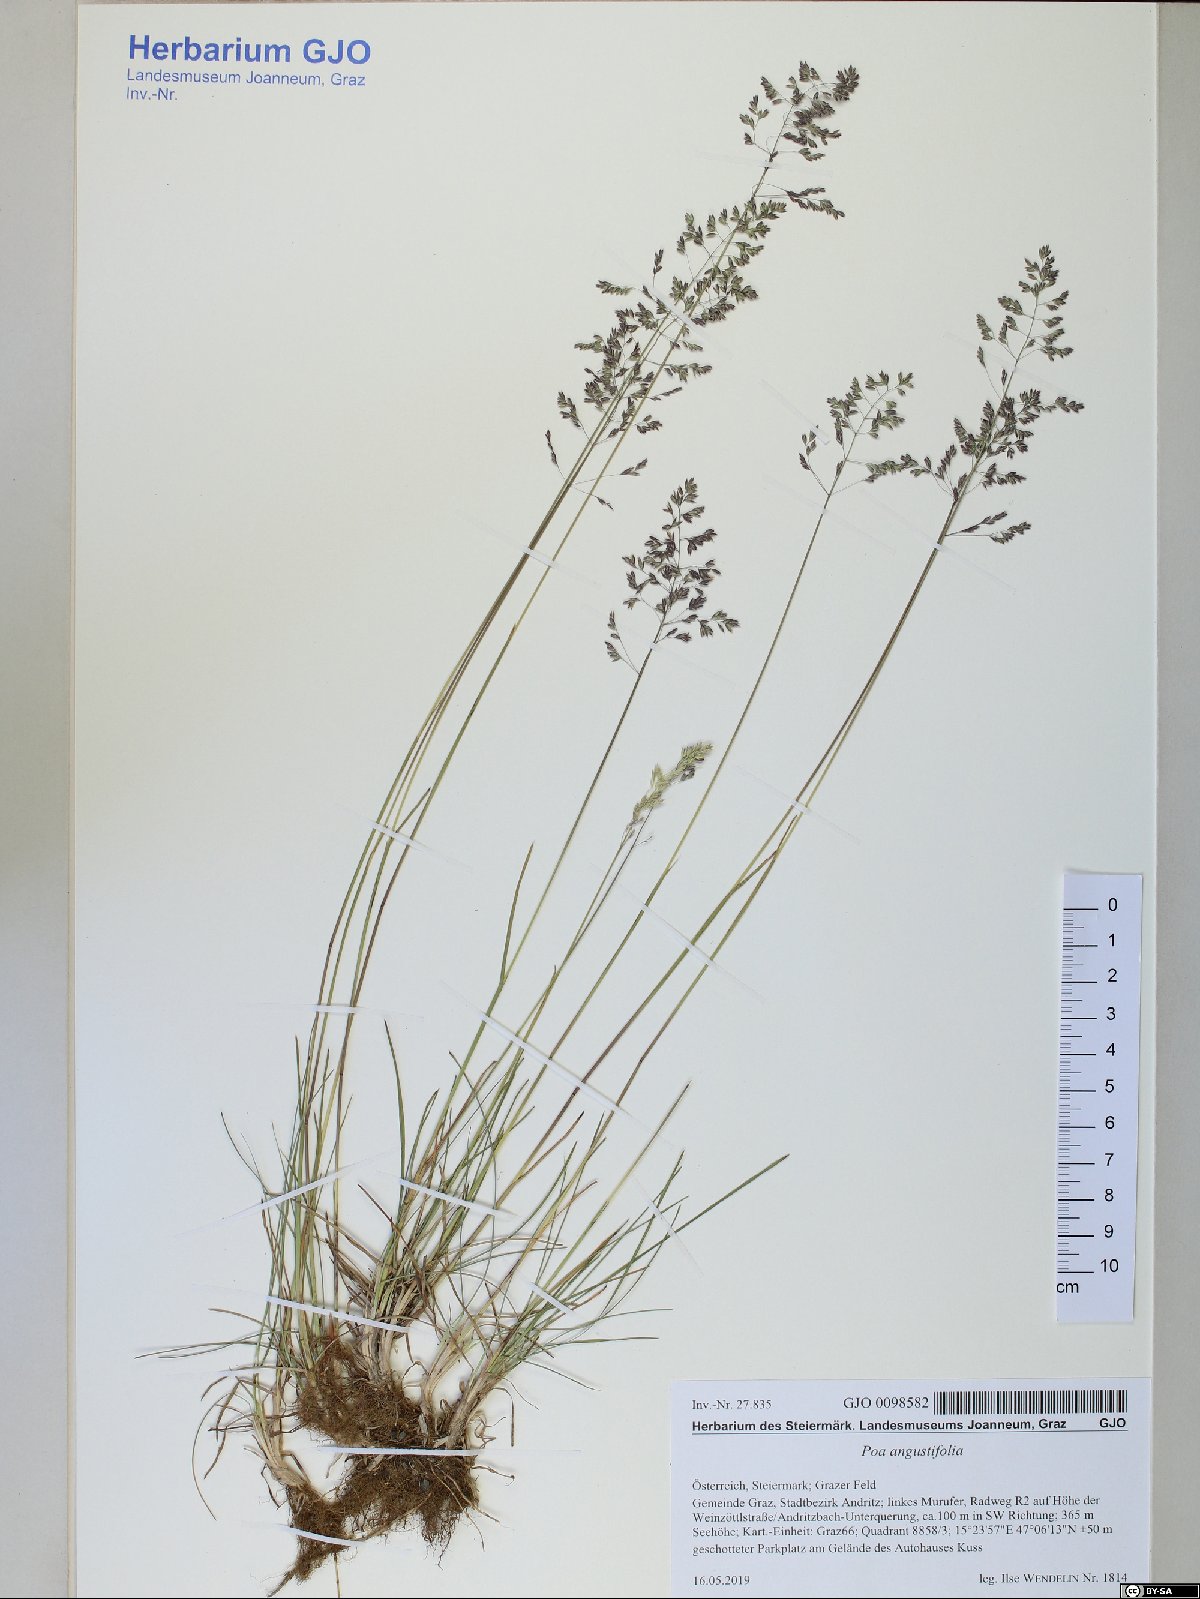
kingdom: Plantae
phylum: Tracheophyta
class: Liliopsida
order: Poales
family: Poaceae
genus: Poa
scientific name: Poa angustifolia
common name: Narrow-leaved meadow-grass
